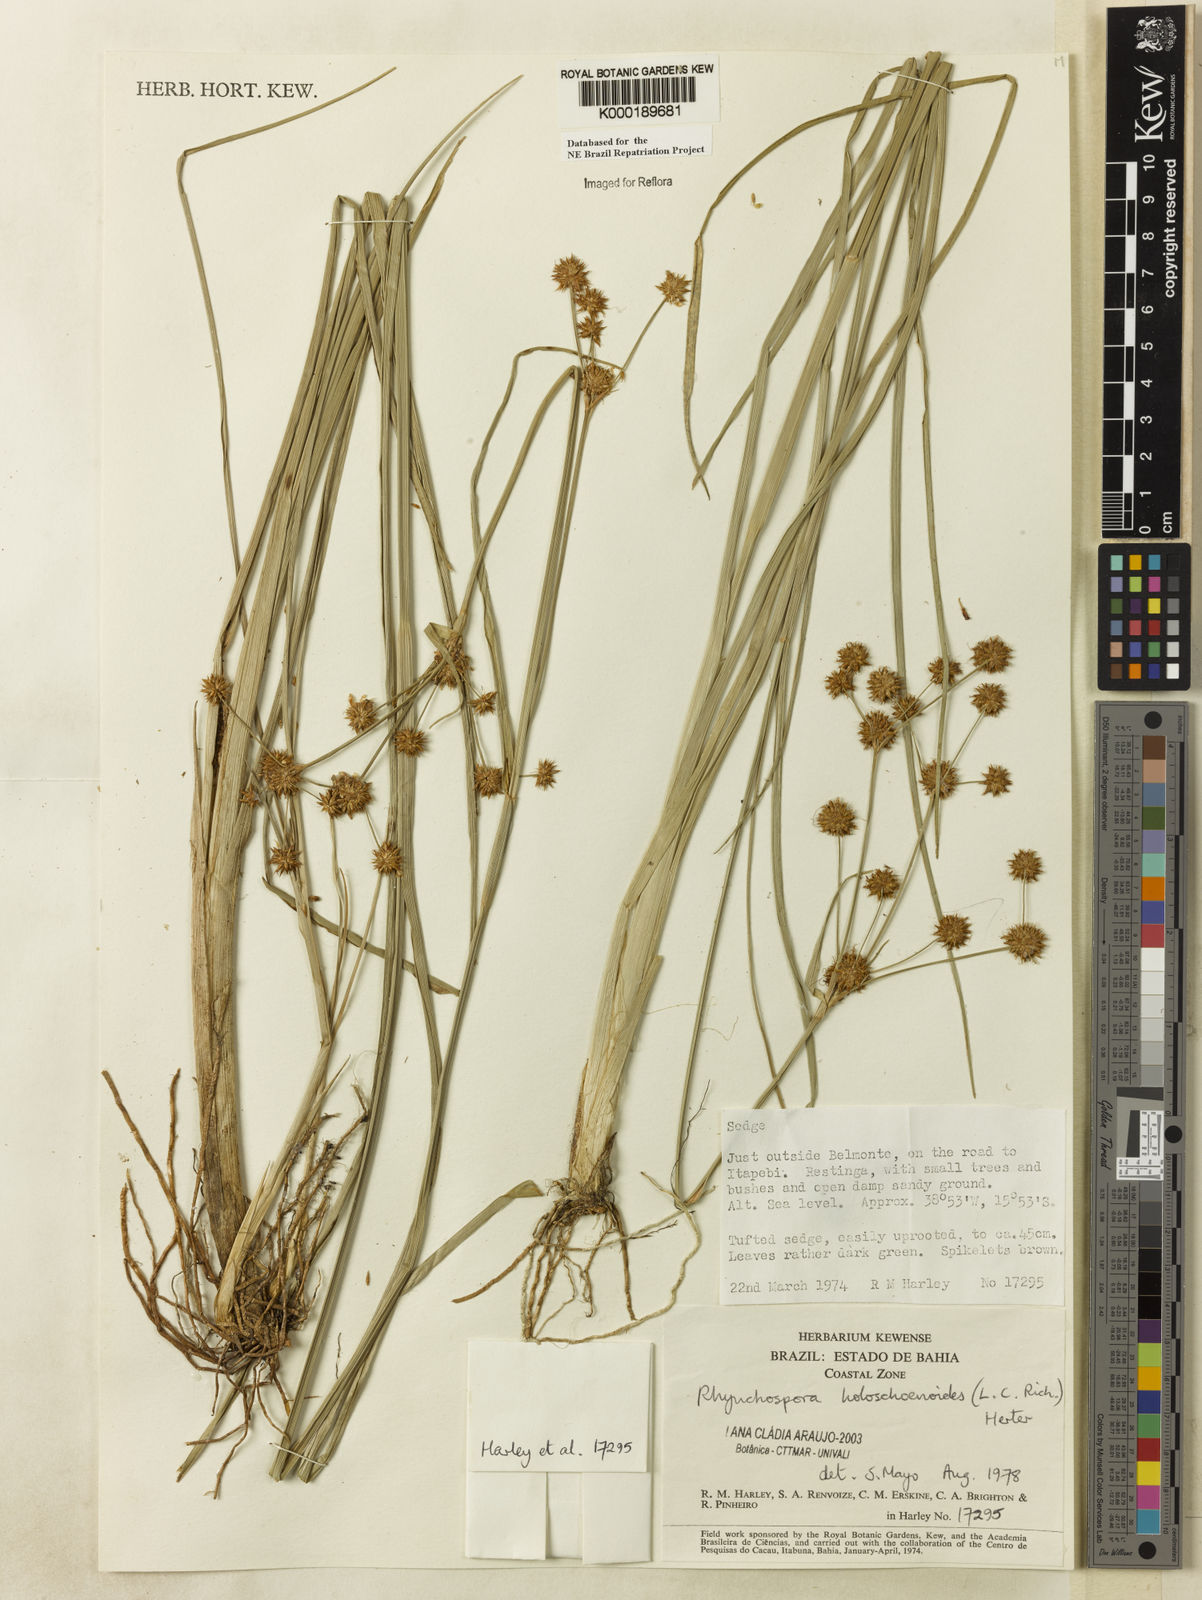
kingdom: Plantae
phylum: Tracheophyta
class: Liliopsida
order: Poales
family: Cyperaceae
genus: Rhynchospora
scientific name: Rhynchospora holoschoenoides
